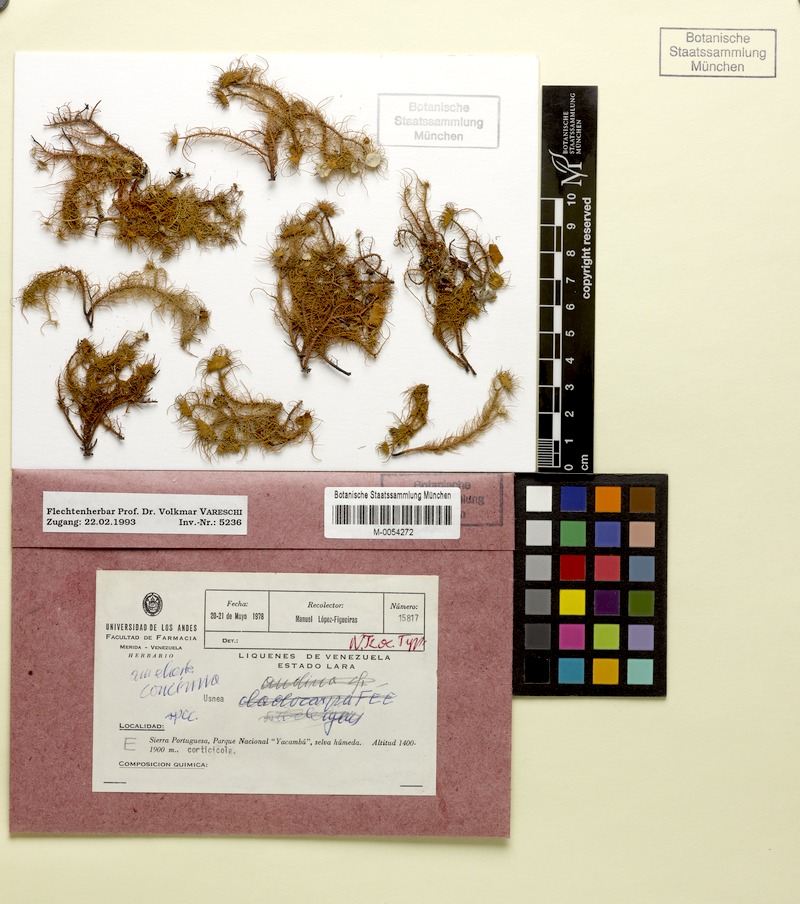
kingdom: Fungi
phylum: Ascomycota
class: Lecanoromycetes
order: Lecanorales
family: Parmeliaceae
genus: Usnea
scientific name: Usnea
